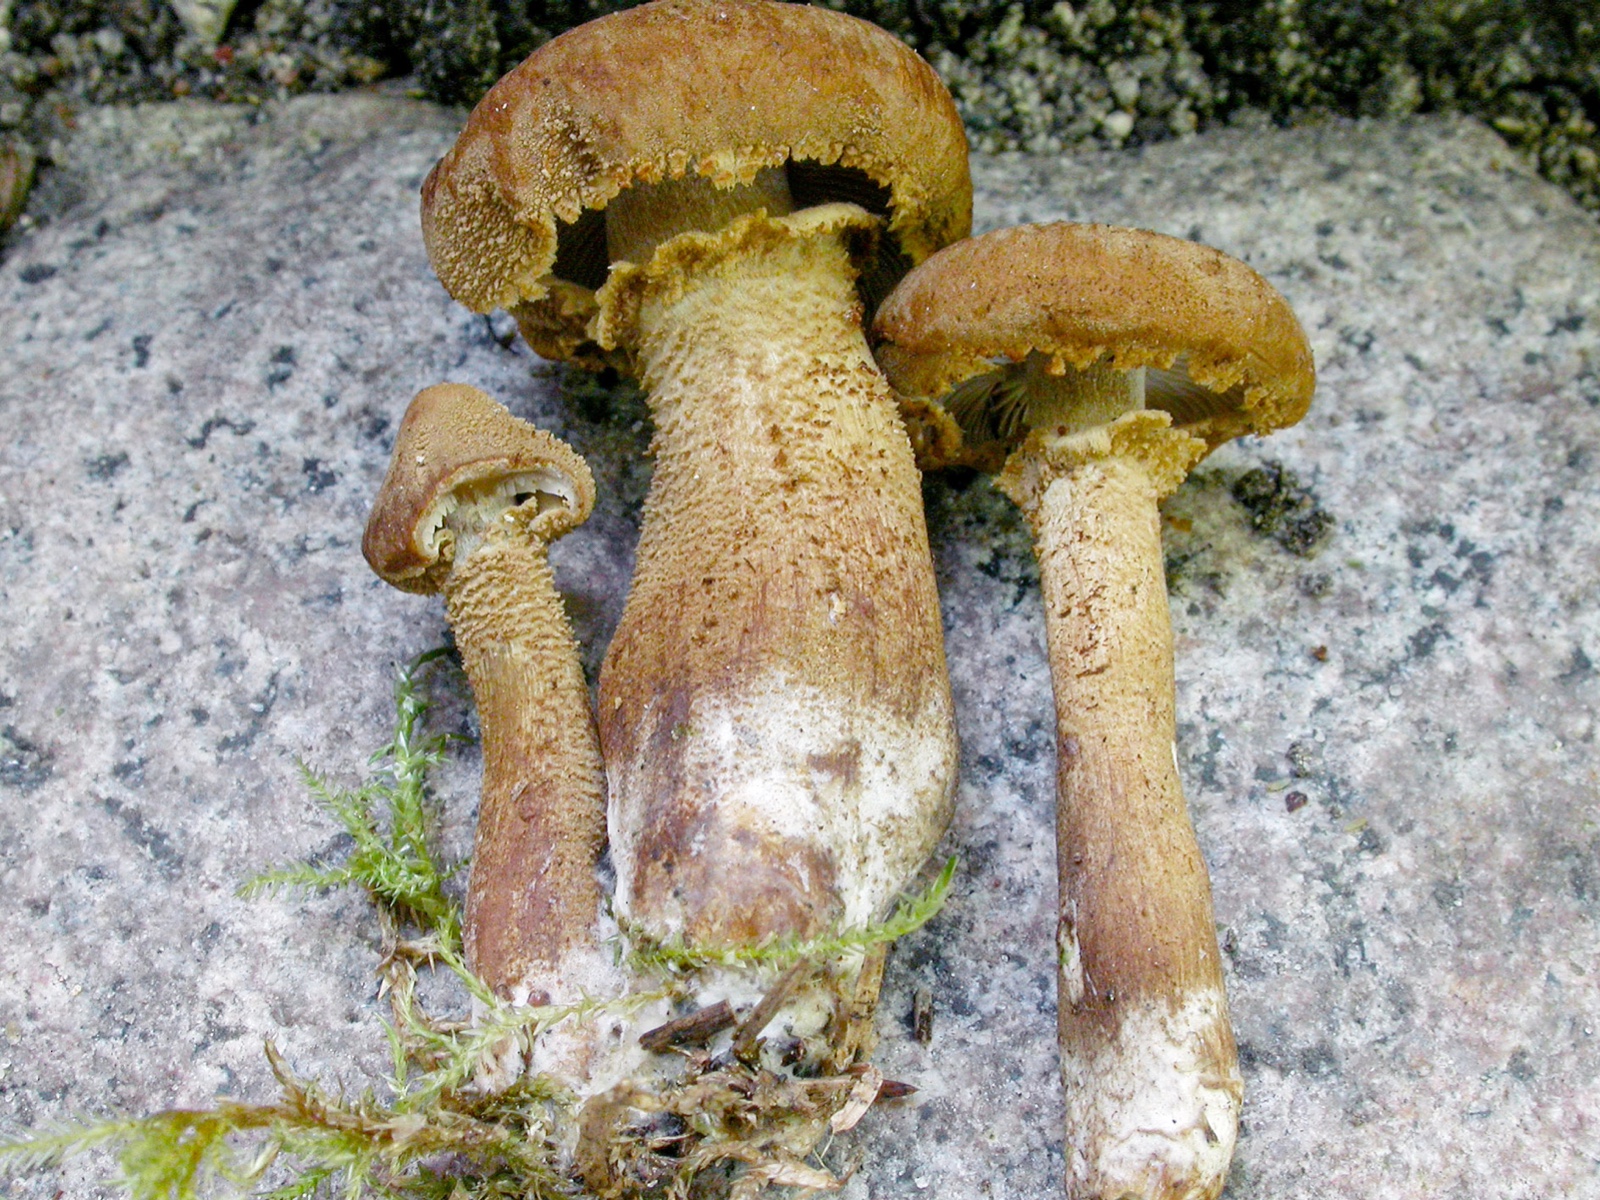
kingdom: Fungi
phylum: Basidiomycota
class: Agaricomycetes
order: Agaricales
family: Tricholomataceae
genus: Cystoderma
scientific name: Cystoderma fallax
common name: ring-grynhat
